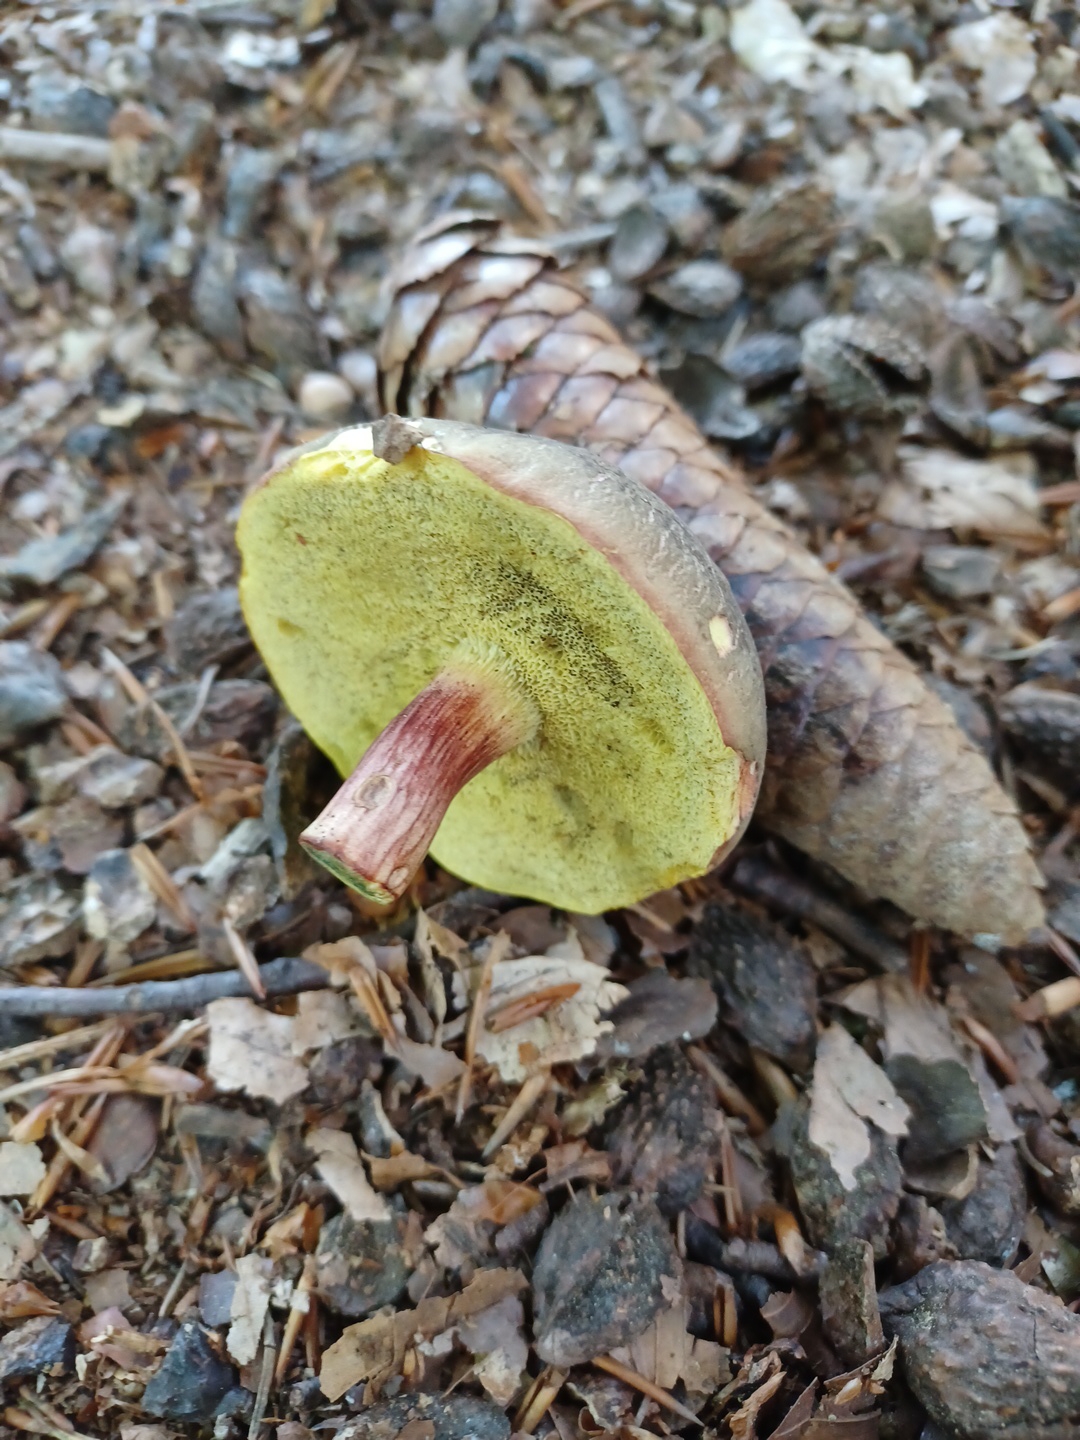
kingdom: Fungi
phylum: Basidiomycota
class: Agaricomycetes
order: Boletales
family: Boletaceae
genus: Xerocomellus
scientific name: Xerocomellus pruinatus
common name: dugget rørhat
